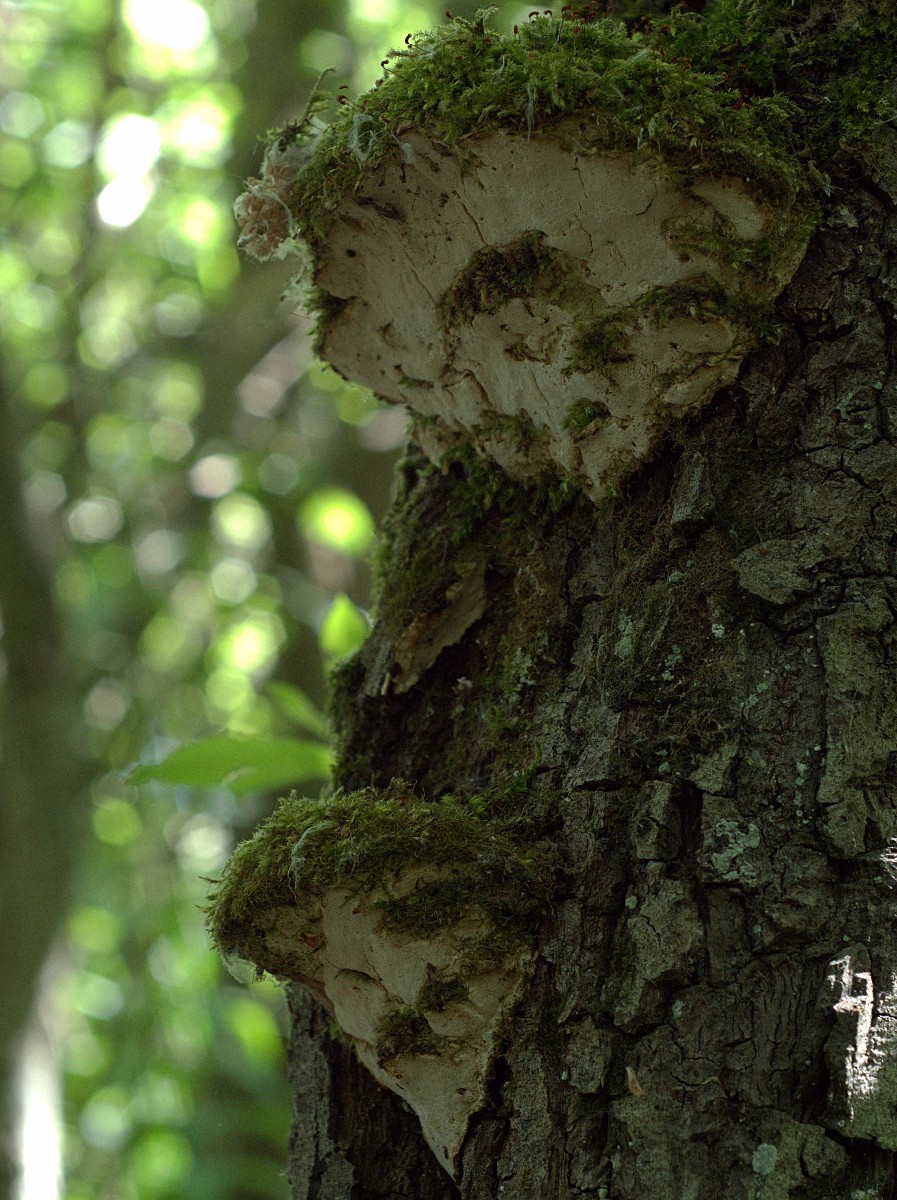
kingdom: Fungi
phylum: Basidiomycota
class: Agaricomycetes
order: Hymenochaetales
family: Oxyporaceae
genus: Oxyporus
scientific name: Oxyporus populinus
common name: sammenvokset trylleporesvamp
